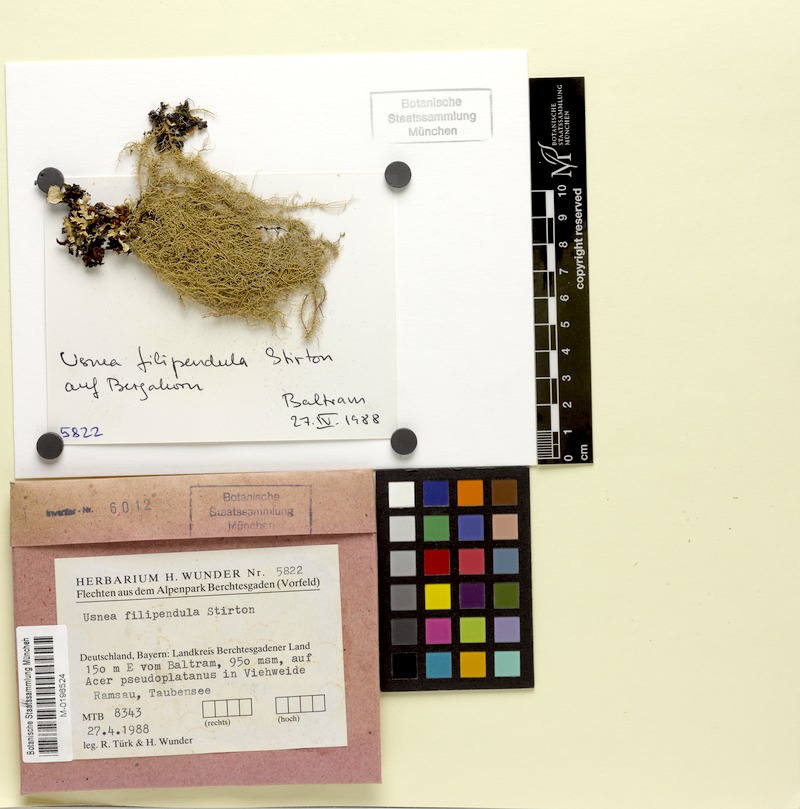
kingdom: Fungi
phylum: Ascomycota
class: Lecanoromycetes
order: Lecanorales
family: Parmeliaceae
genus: Usnea
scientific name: Usnea filipendula
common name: Fishbone beard lichen
